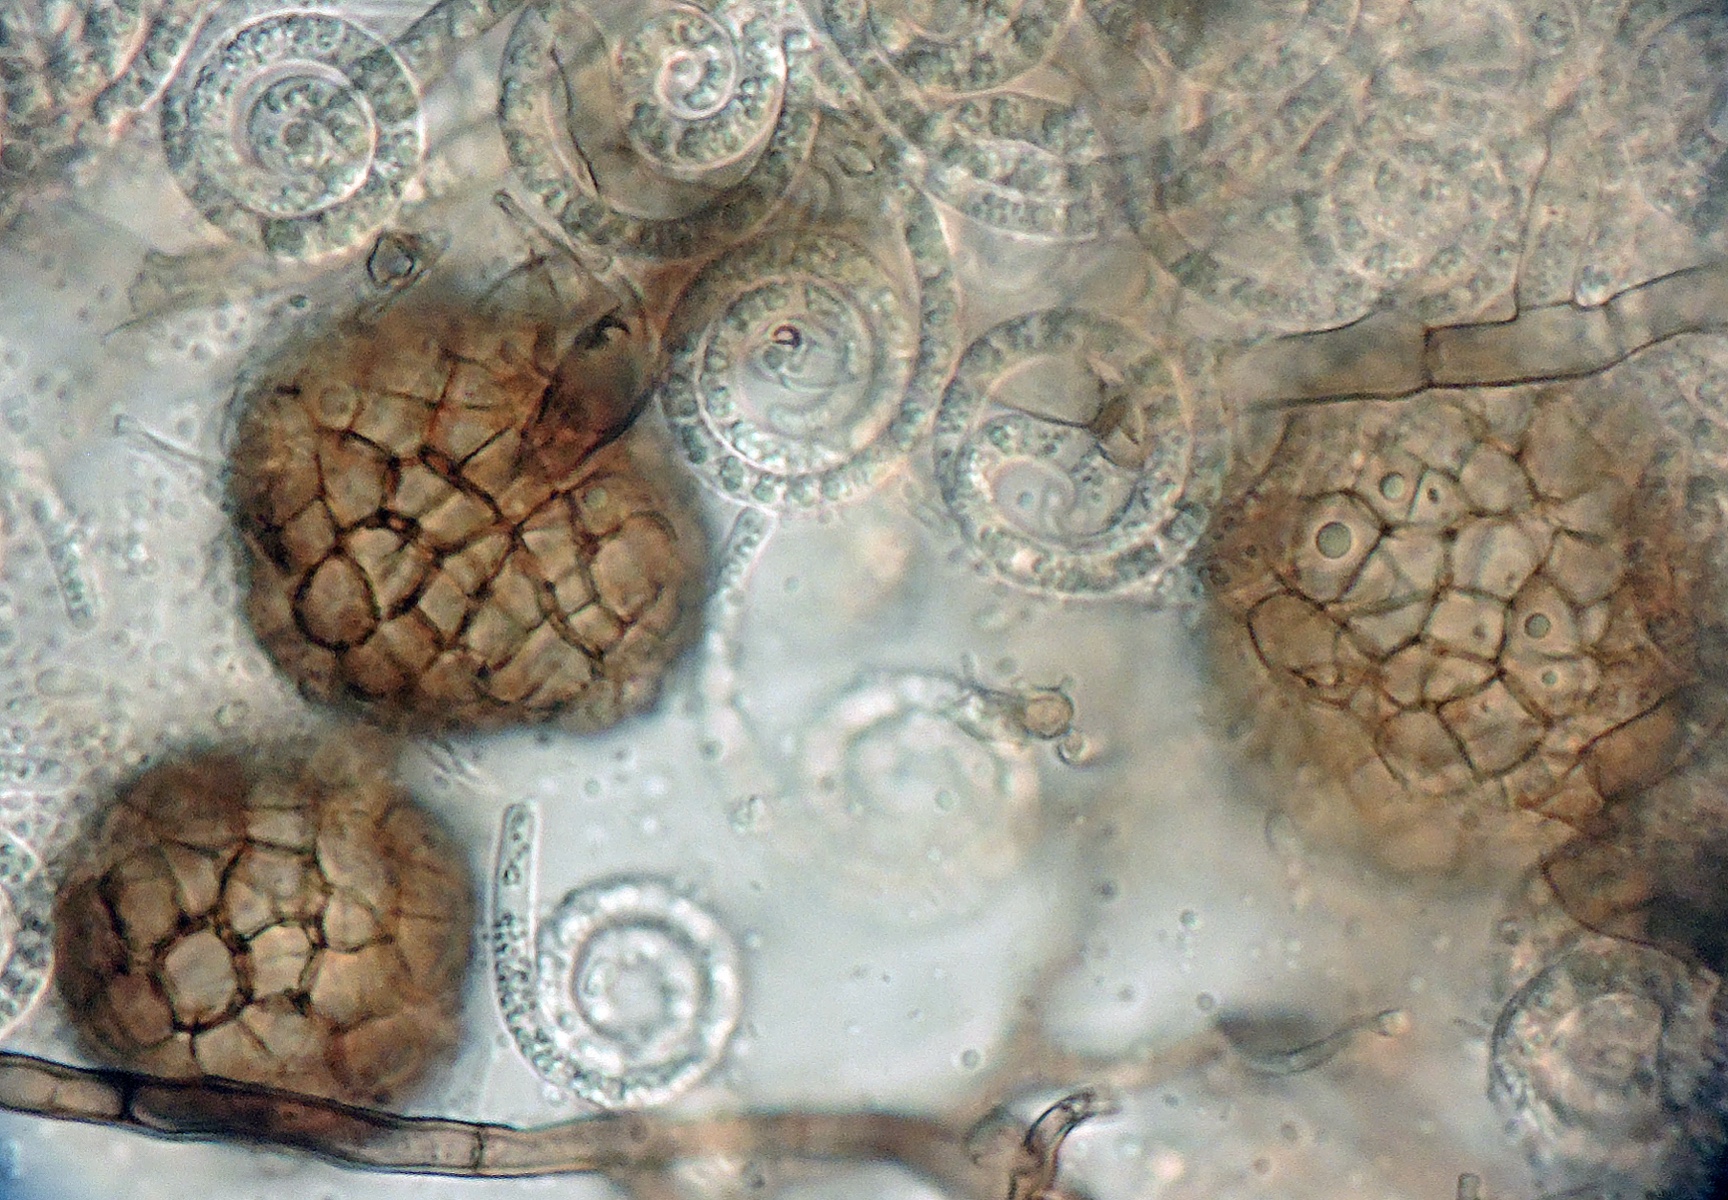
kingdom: Fungi
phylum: Ascomycota
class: Dothideomycetes
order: Tubeufiales
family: Tubeufiaceae
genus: Helicomyces
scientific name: Helicomyces
